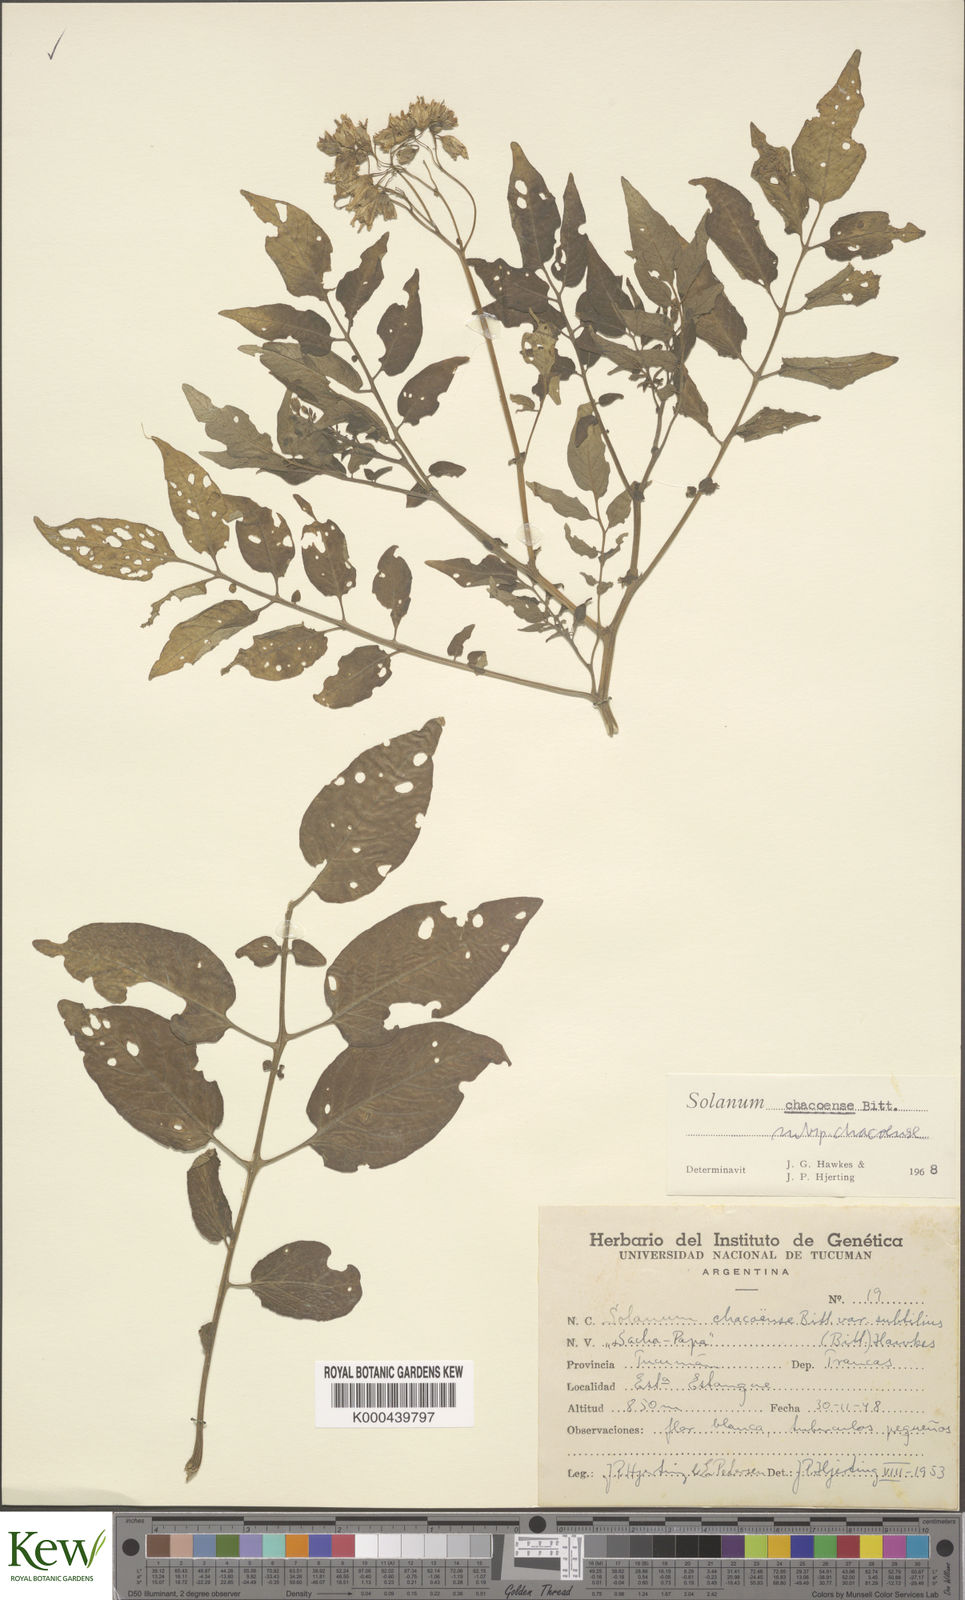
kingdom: Plantae
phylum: Tracheophyta
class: Magnoliopsida
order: Solanales
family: Solanaceae
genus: Solanum
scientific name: Solanum chacoense
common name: Chaco potato
